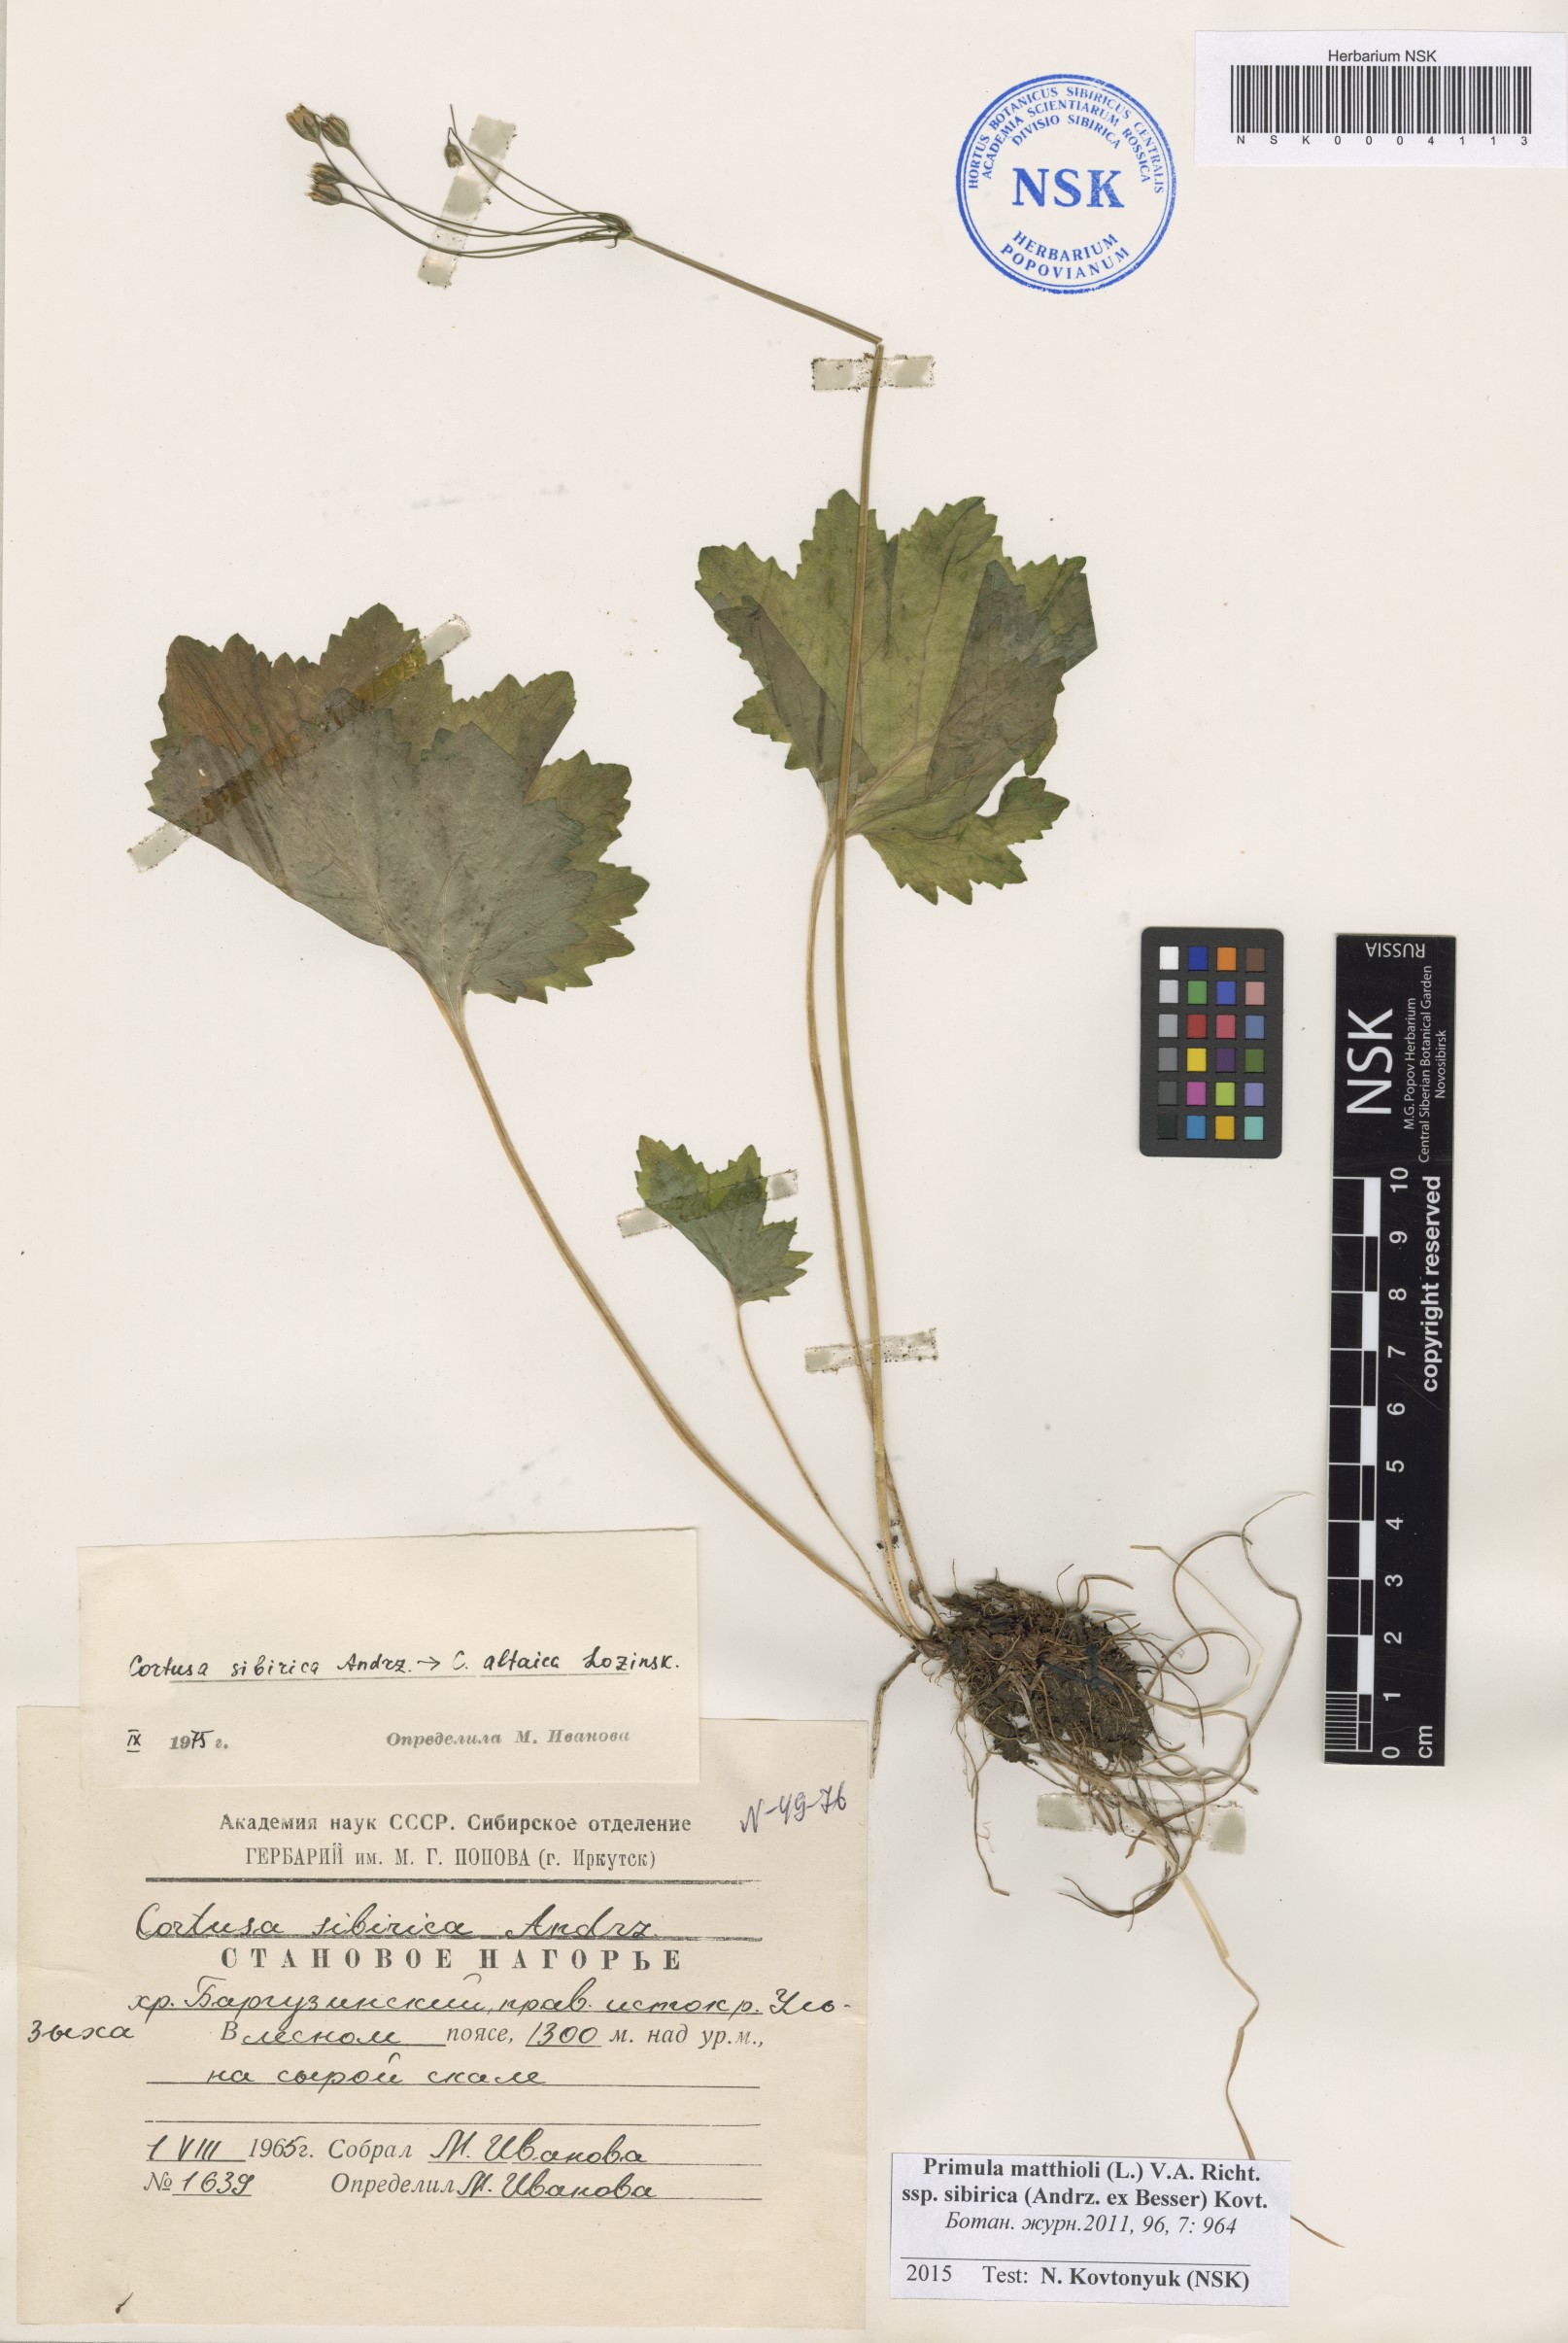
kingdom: Plantae
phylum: Tracheophyta
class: Magnoliopsida
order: Ericales
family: Primulaceae
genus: Primula
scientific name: Primula matthioli
